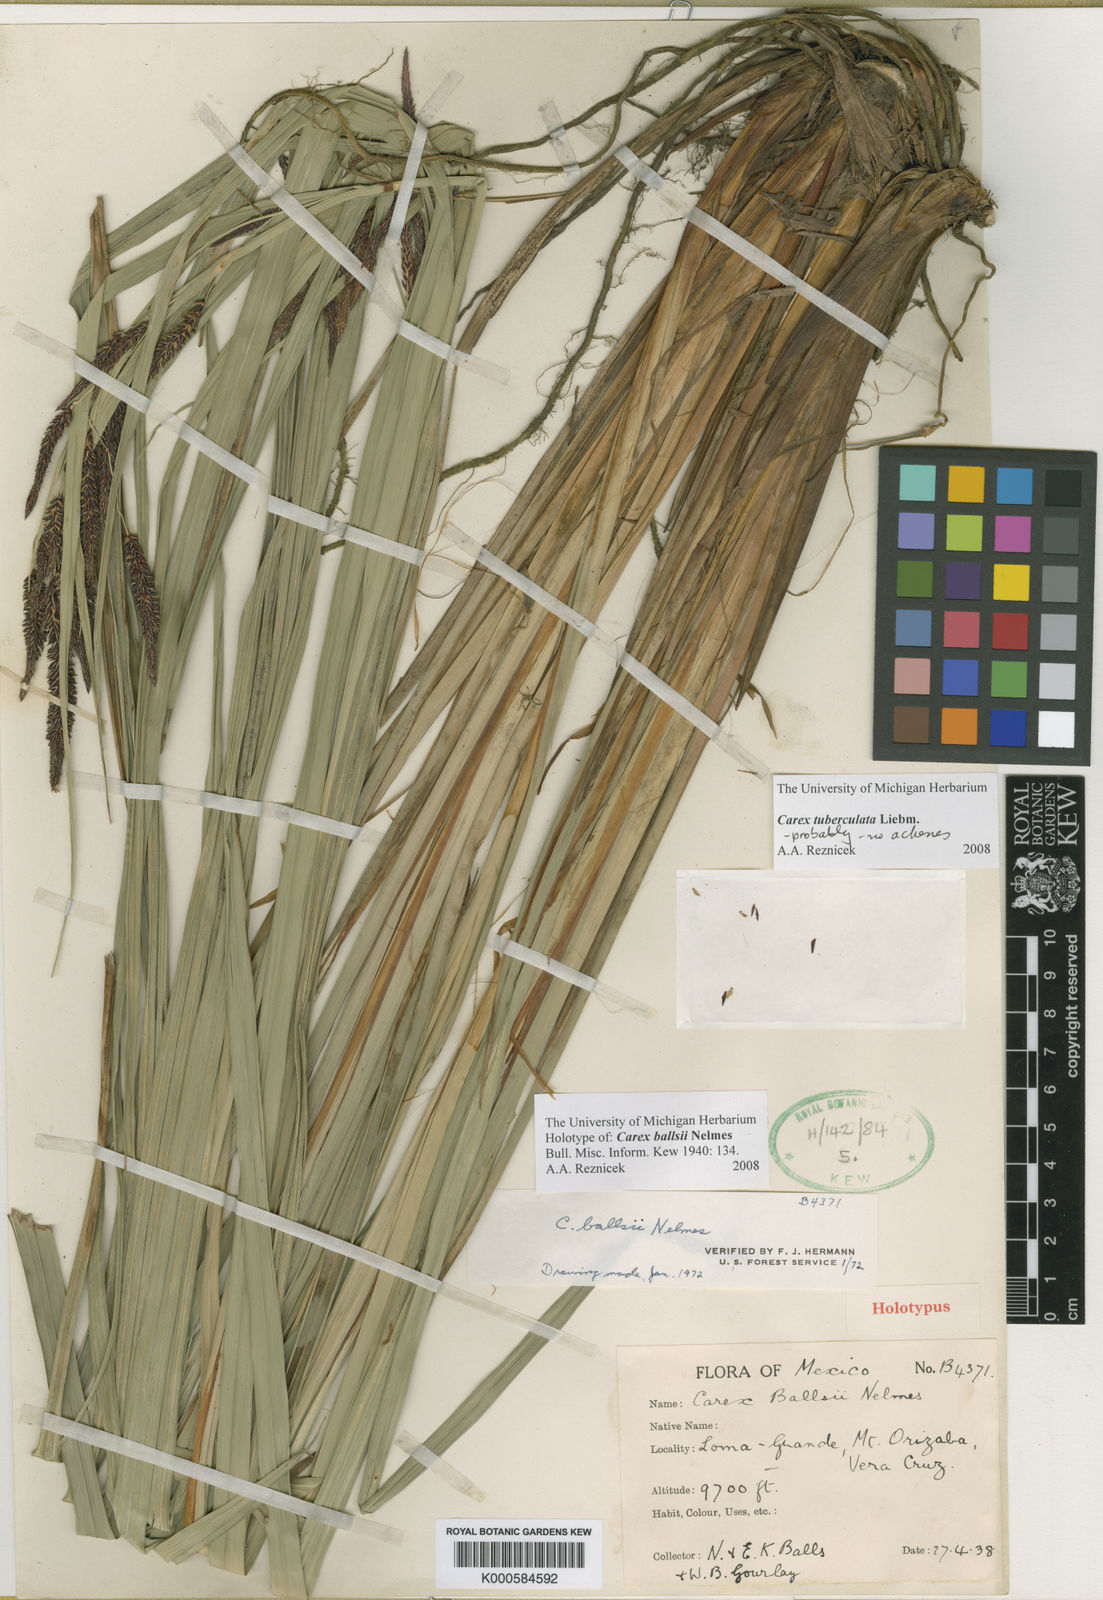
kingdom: Plantae
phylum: Tracheophyta
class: Liliopsida
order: Poales
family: Cyperaceae
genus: Carex
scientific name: Carex ballsii
